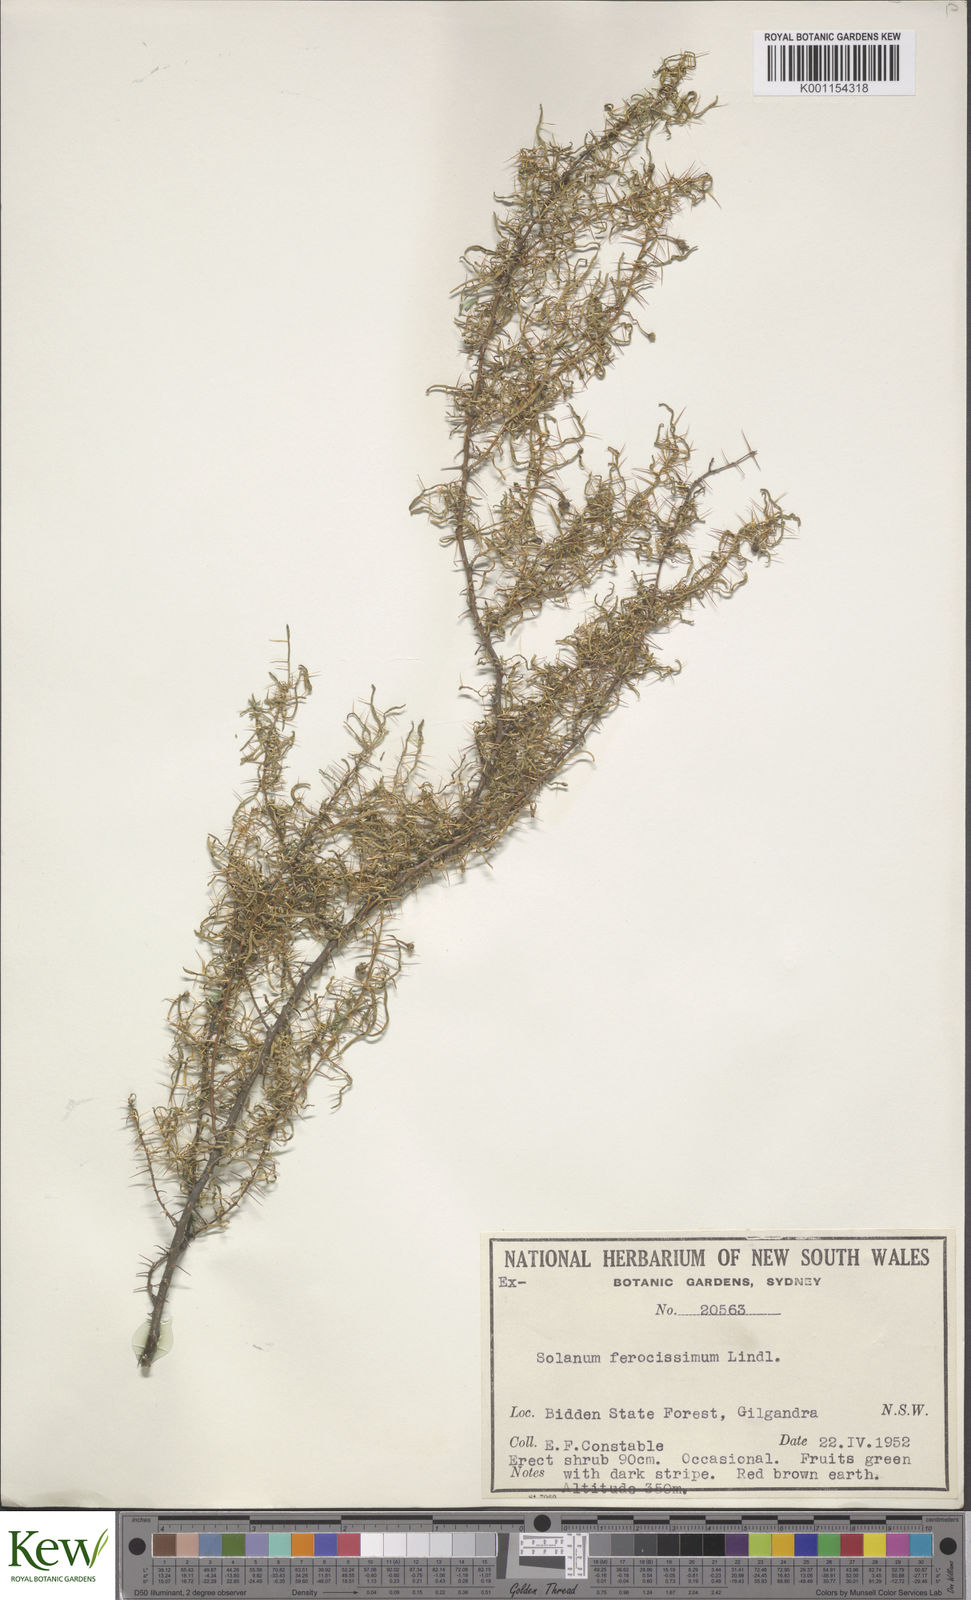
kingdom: Plantae
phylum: Tracheophyta
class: Magnoliopsida
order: Solanales
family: Solanaceae
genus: Solanum
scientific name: Solanum ferocissimum
